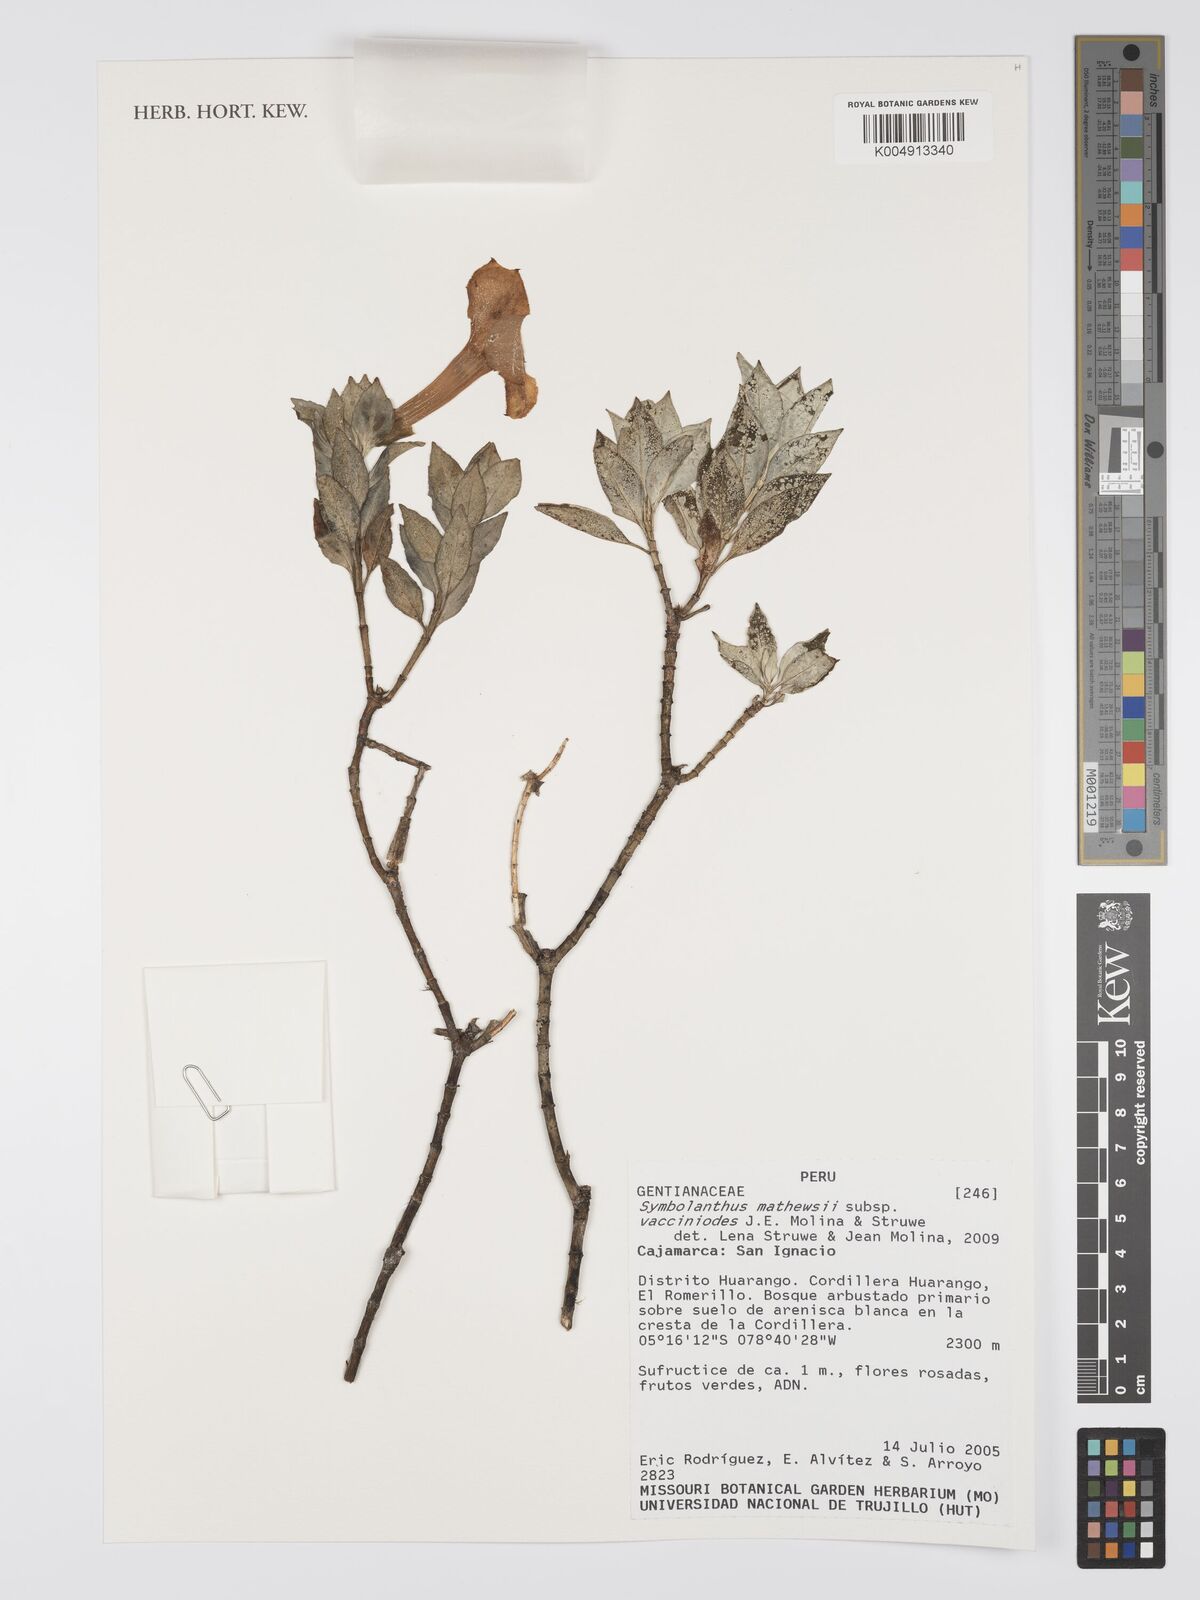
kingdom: Plantae
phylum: Tracheophyta
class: Magnoliopsida
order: Gentianales
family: Gentianaceae
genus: Symbolanthus
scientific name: Symbolanthus mathewsii
